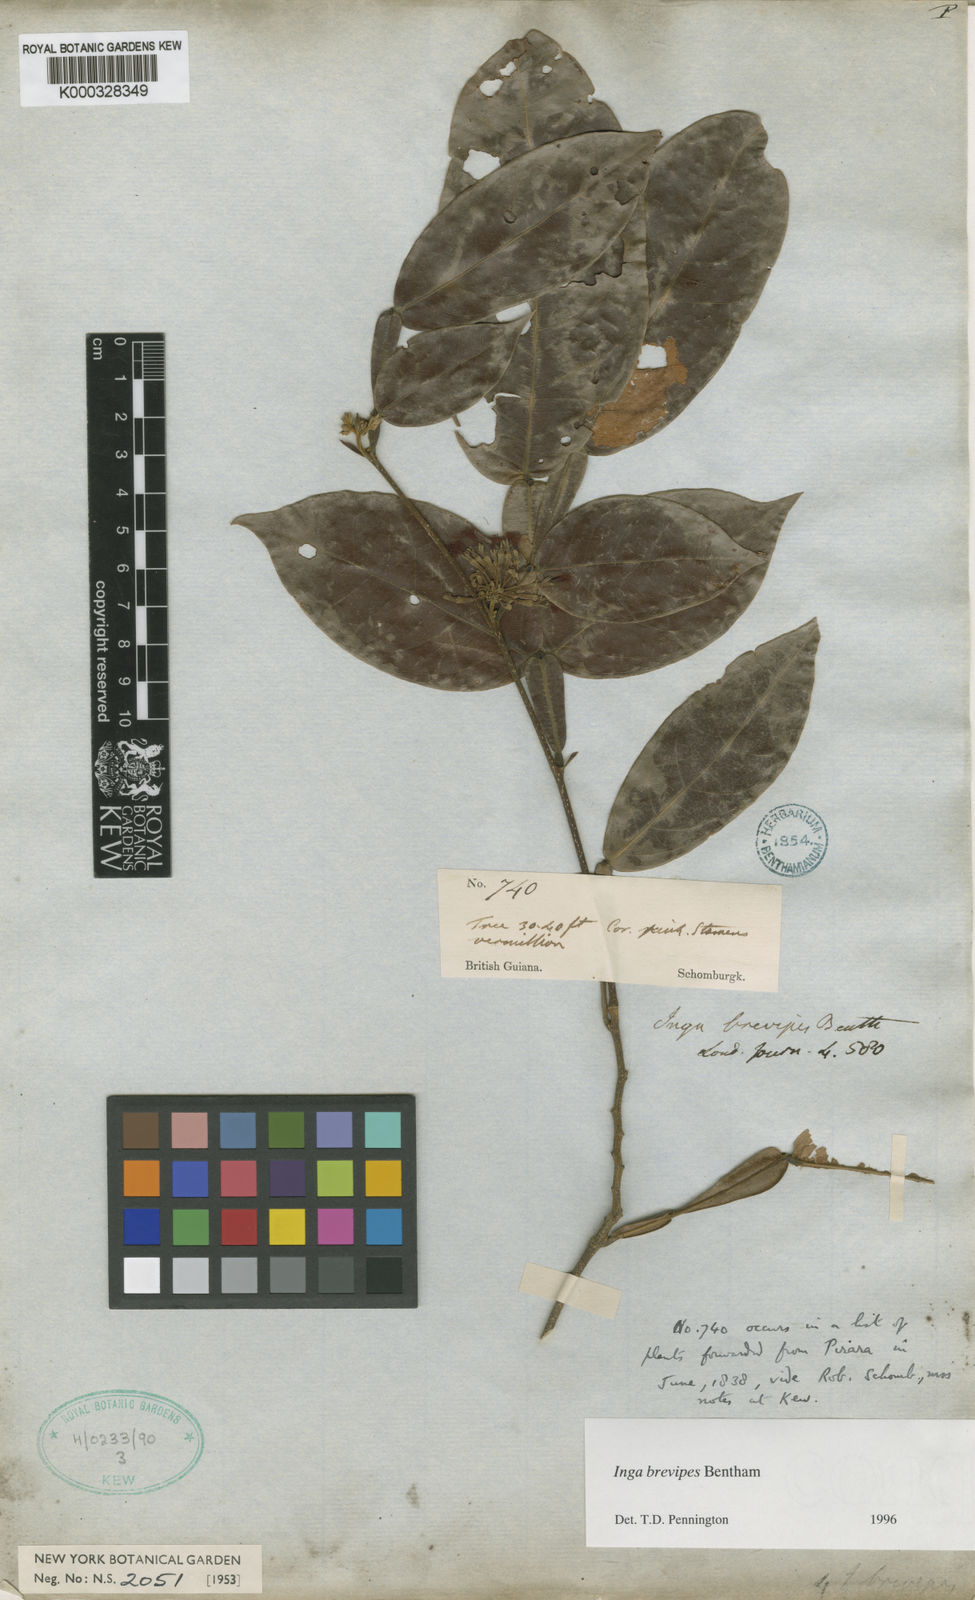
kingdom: Plantae
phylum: Tracheophyta
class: Magnoliopsida
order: Fabales
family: Fabaceae
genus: Inga
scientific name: Inga brevipes
